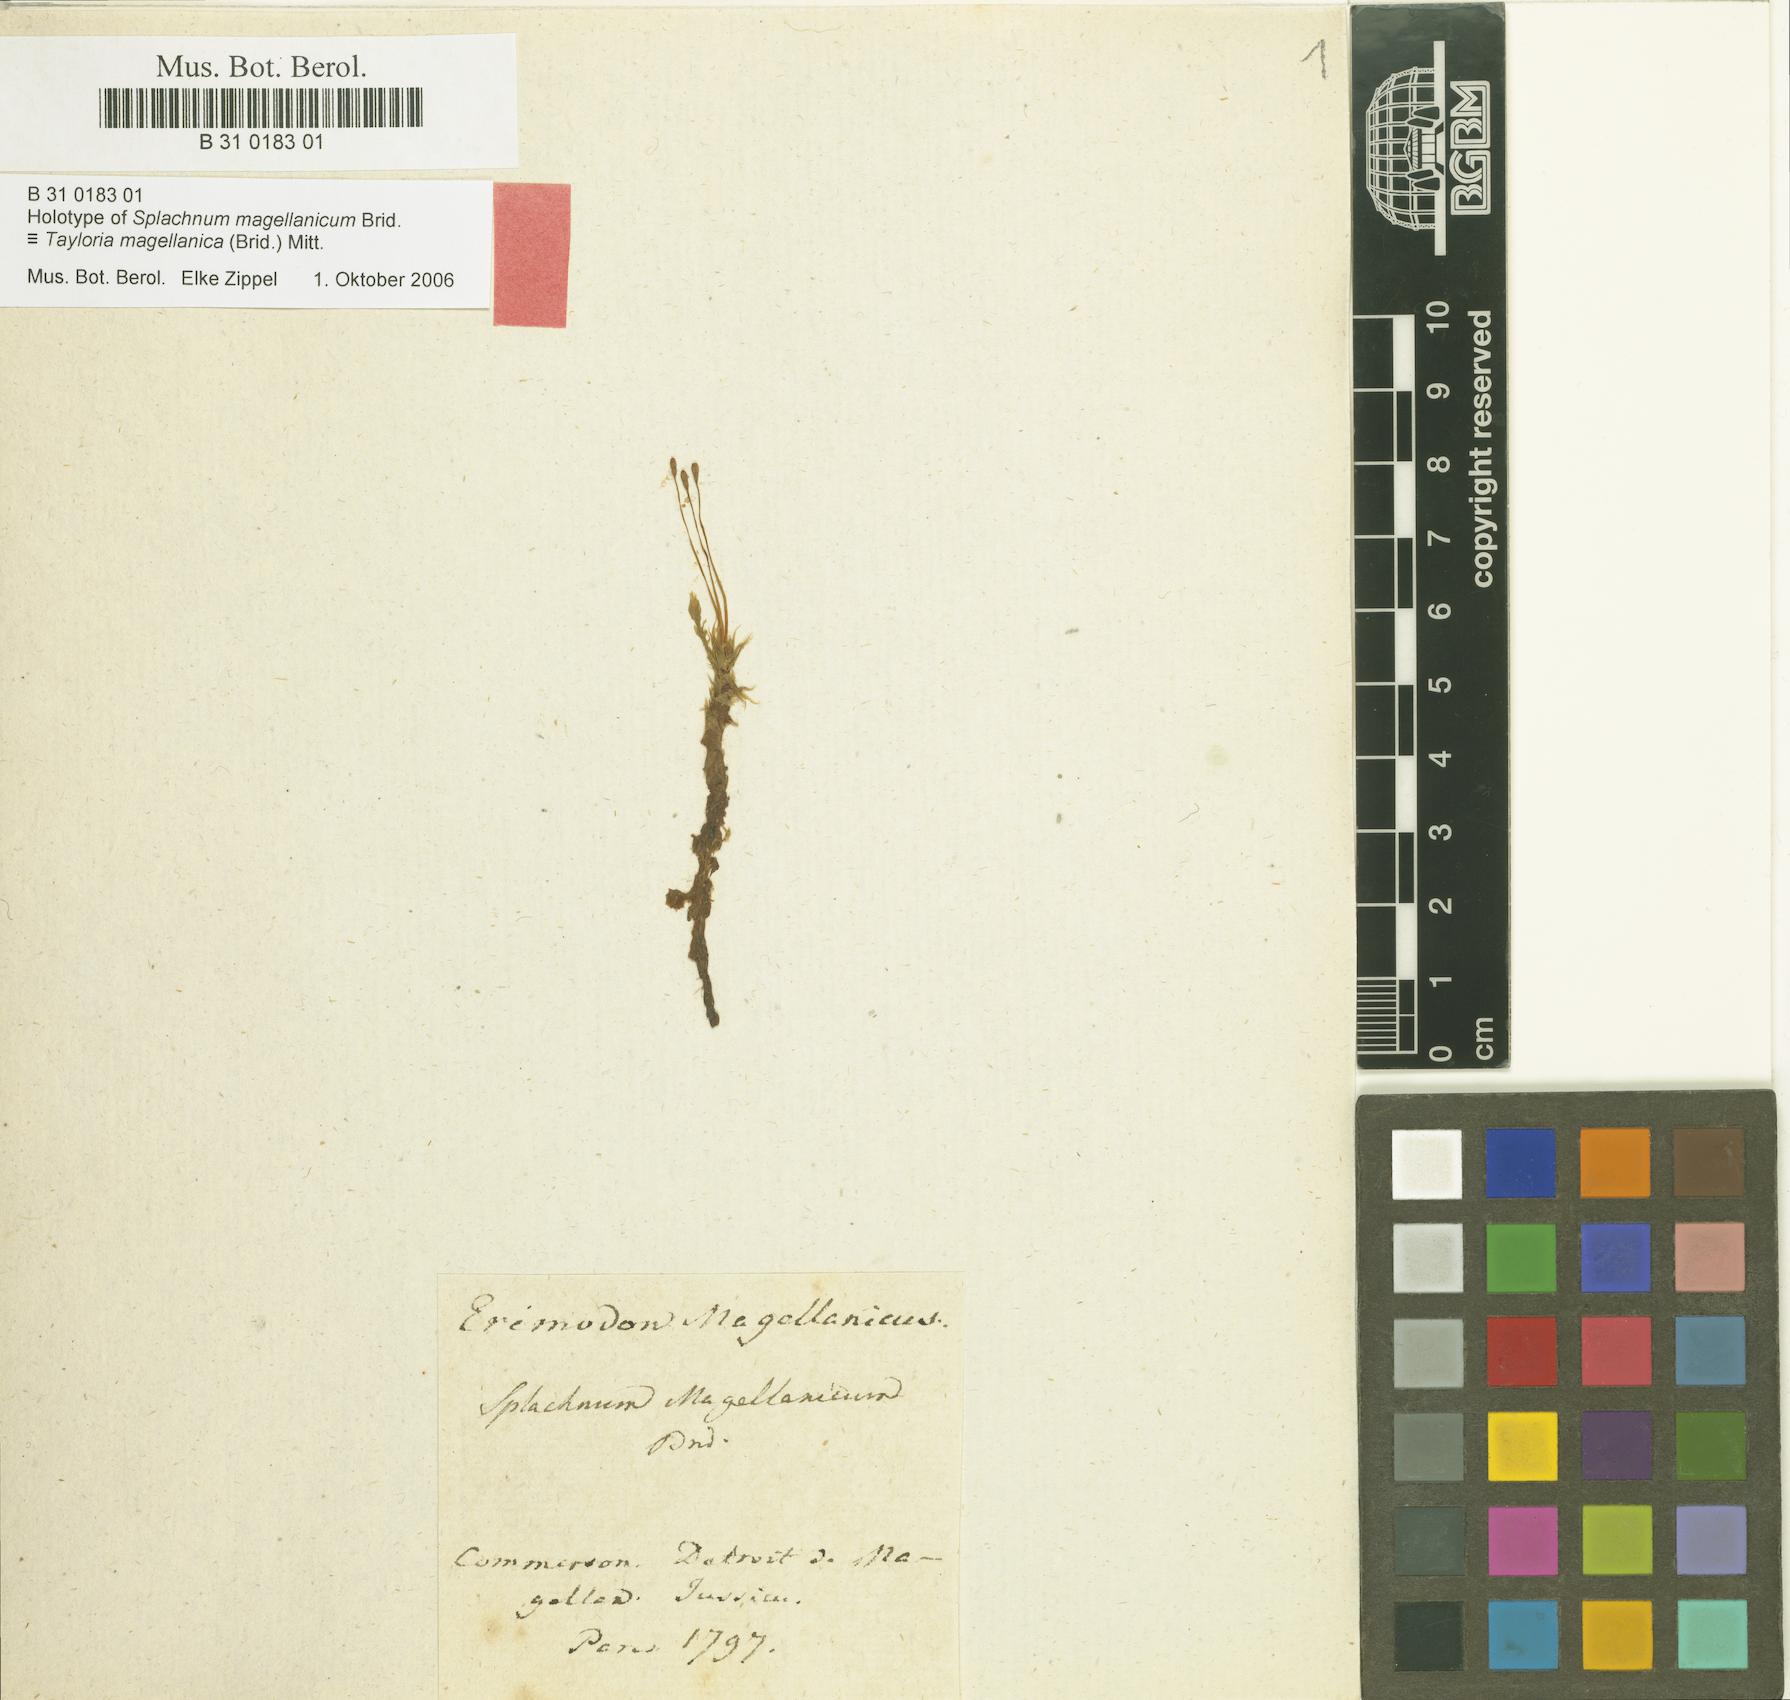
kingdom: Plantae
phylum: Bryophyta
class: Bryopsida
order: Splachnales
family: Splachnaceae
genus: Tayloria
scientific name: Tayloria magellanica
